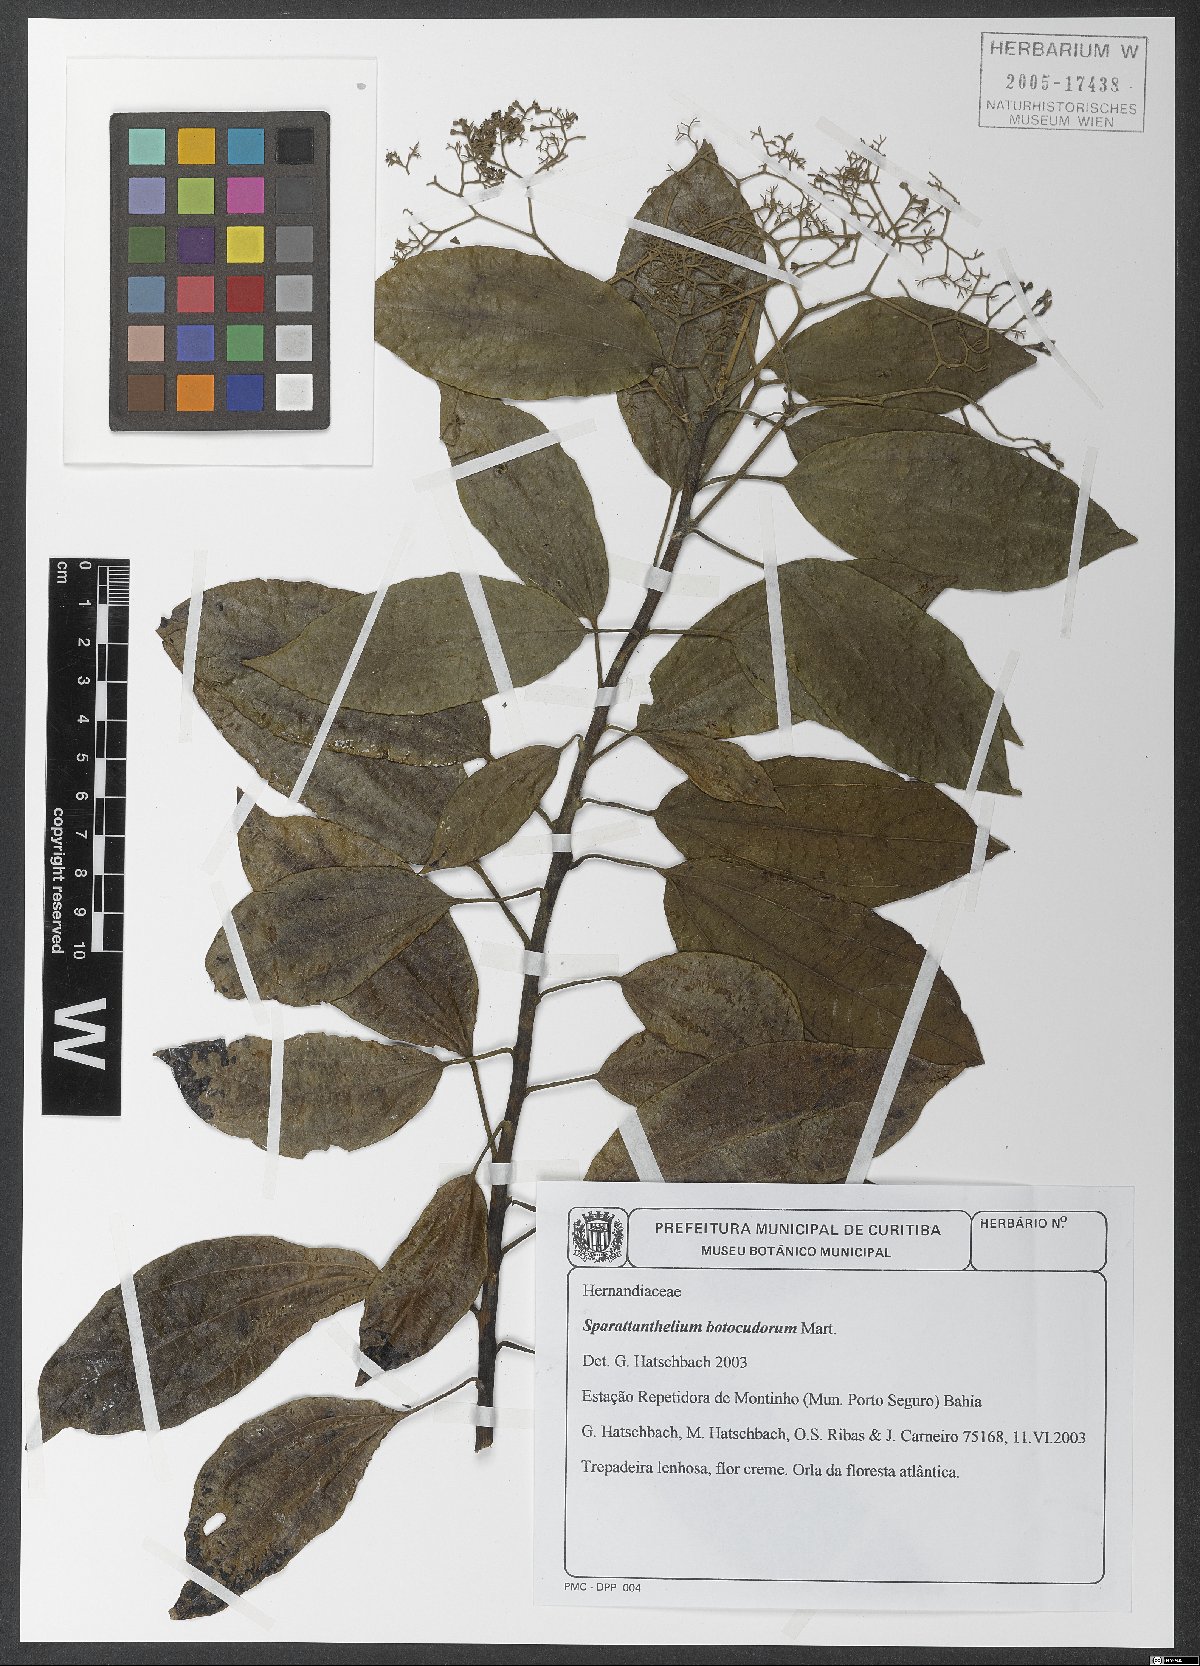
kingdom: Plantae
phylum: Tracheophyta
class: Magnoliopsida
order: Laurales
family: Hernandiaceae
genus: Sparattanthelium
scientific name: Sparattanthelium botocudorum
